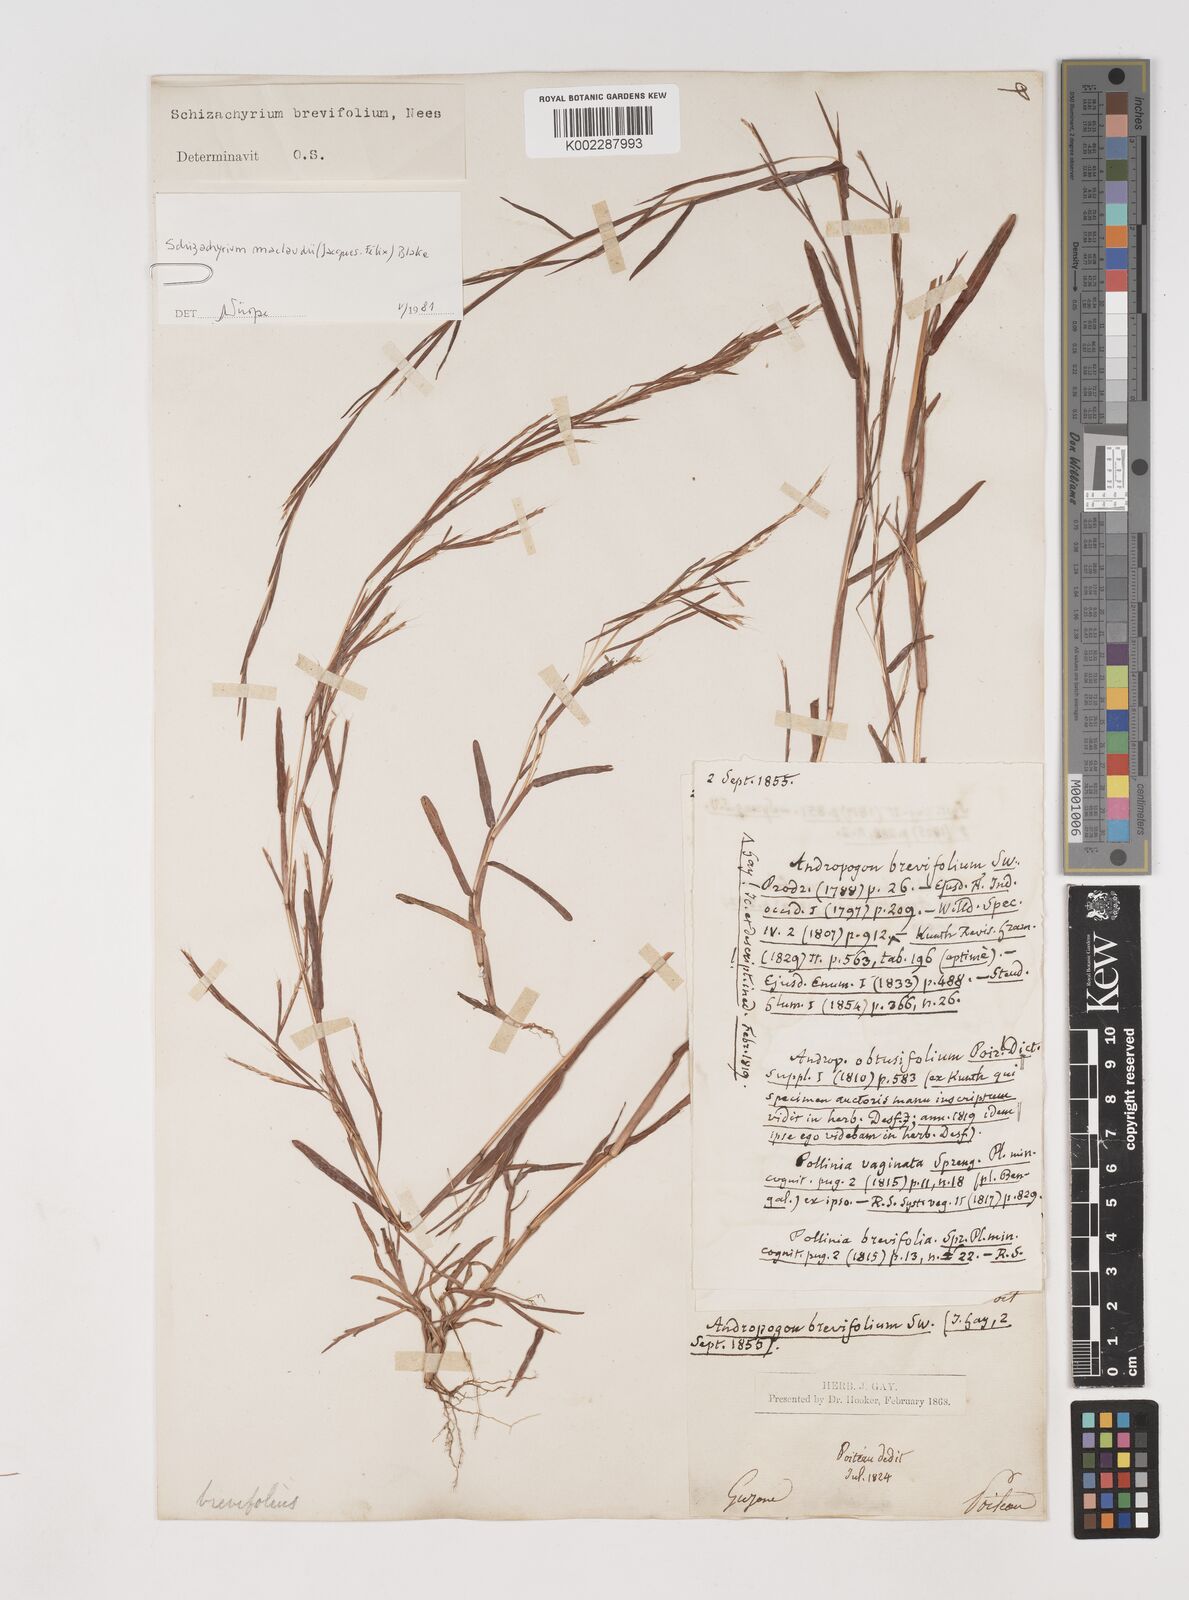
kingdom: Plantae
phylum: Tracheophyta
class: Liliopsida
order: Poales
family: Poaceae
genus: Schizachyrium
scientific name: Schizachyrium maclaudii
